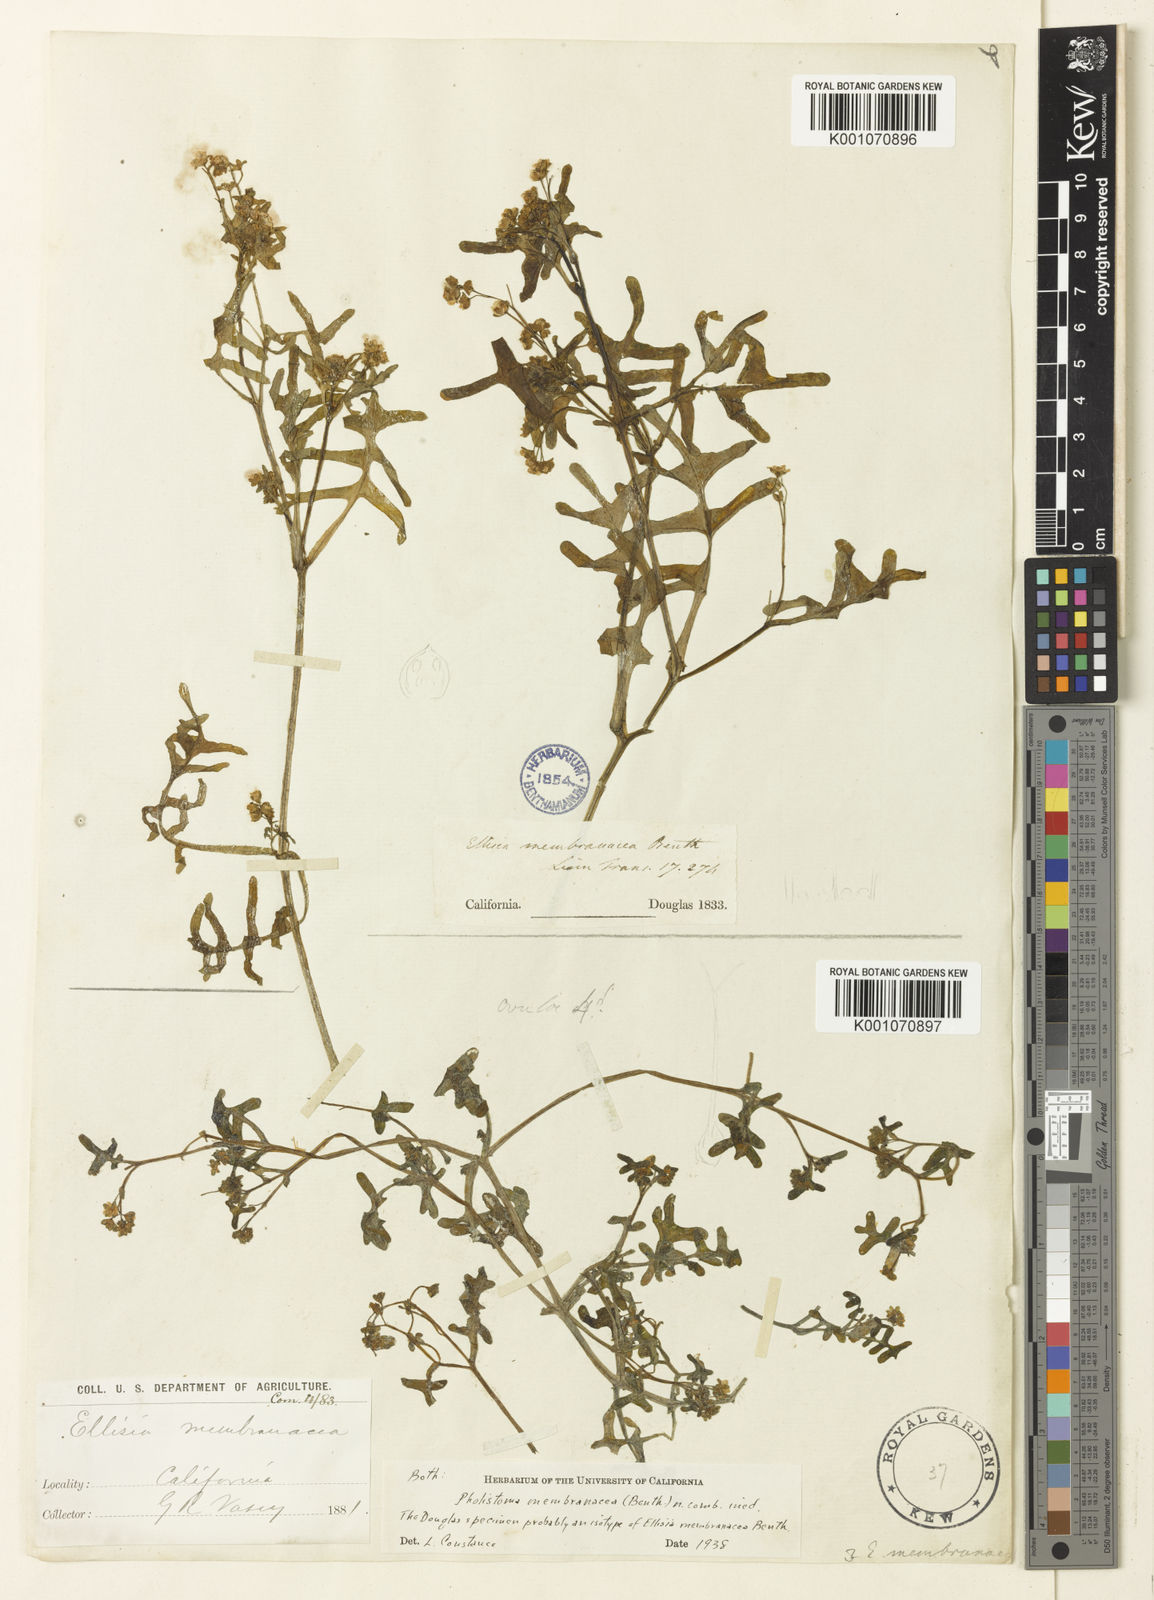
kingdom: Plantae
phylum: Tracheophyta
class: Magnoliopsida
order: Boraginales
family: Hydrophyllaceae
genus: Pholistoma
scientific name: Pholistoma membranaceum
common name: White fiesta-flower
